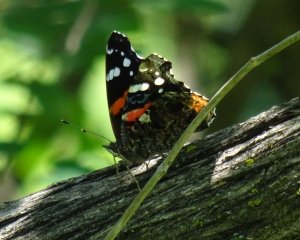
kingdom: Animalia
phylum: Arthropoda
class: Insecta
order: Lepidoptera
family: Nymphalidae
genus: Vanessa
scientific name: Vanessa atalanta
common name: Red Admiral
